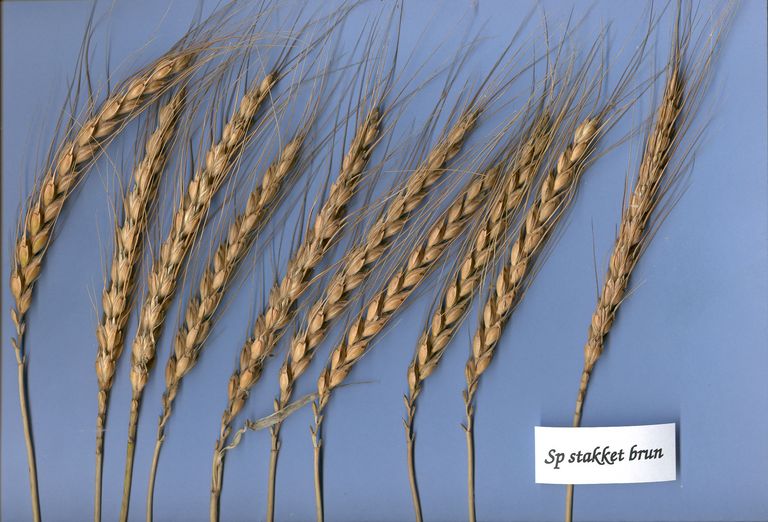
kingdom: Plantae
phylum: Tracheophyta
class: Liliopsida
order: Poales
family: Poaceae
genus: Triticum
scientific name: Triticum aestivum
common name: Common wheat
